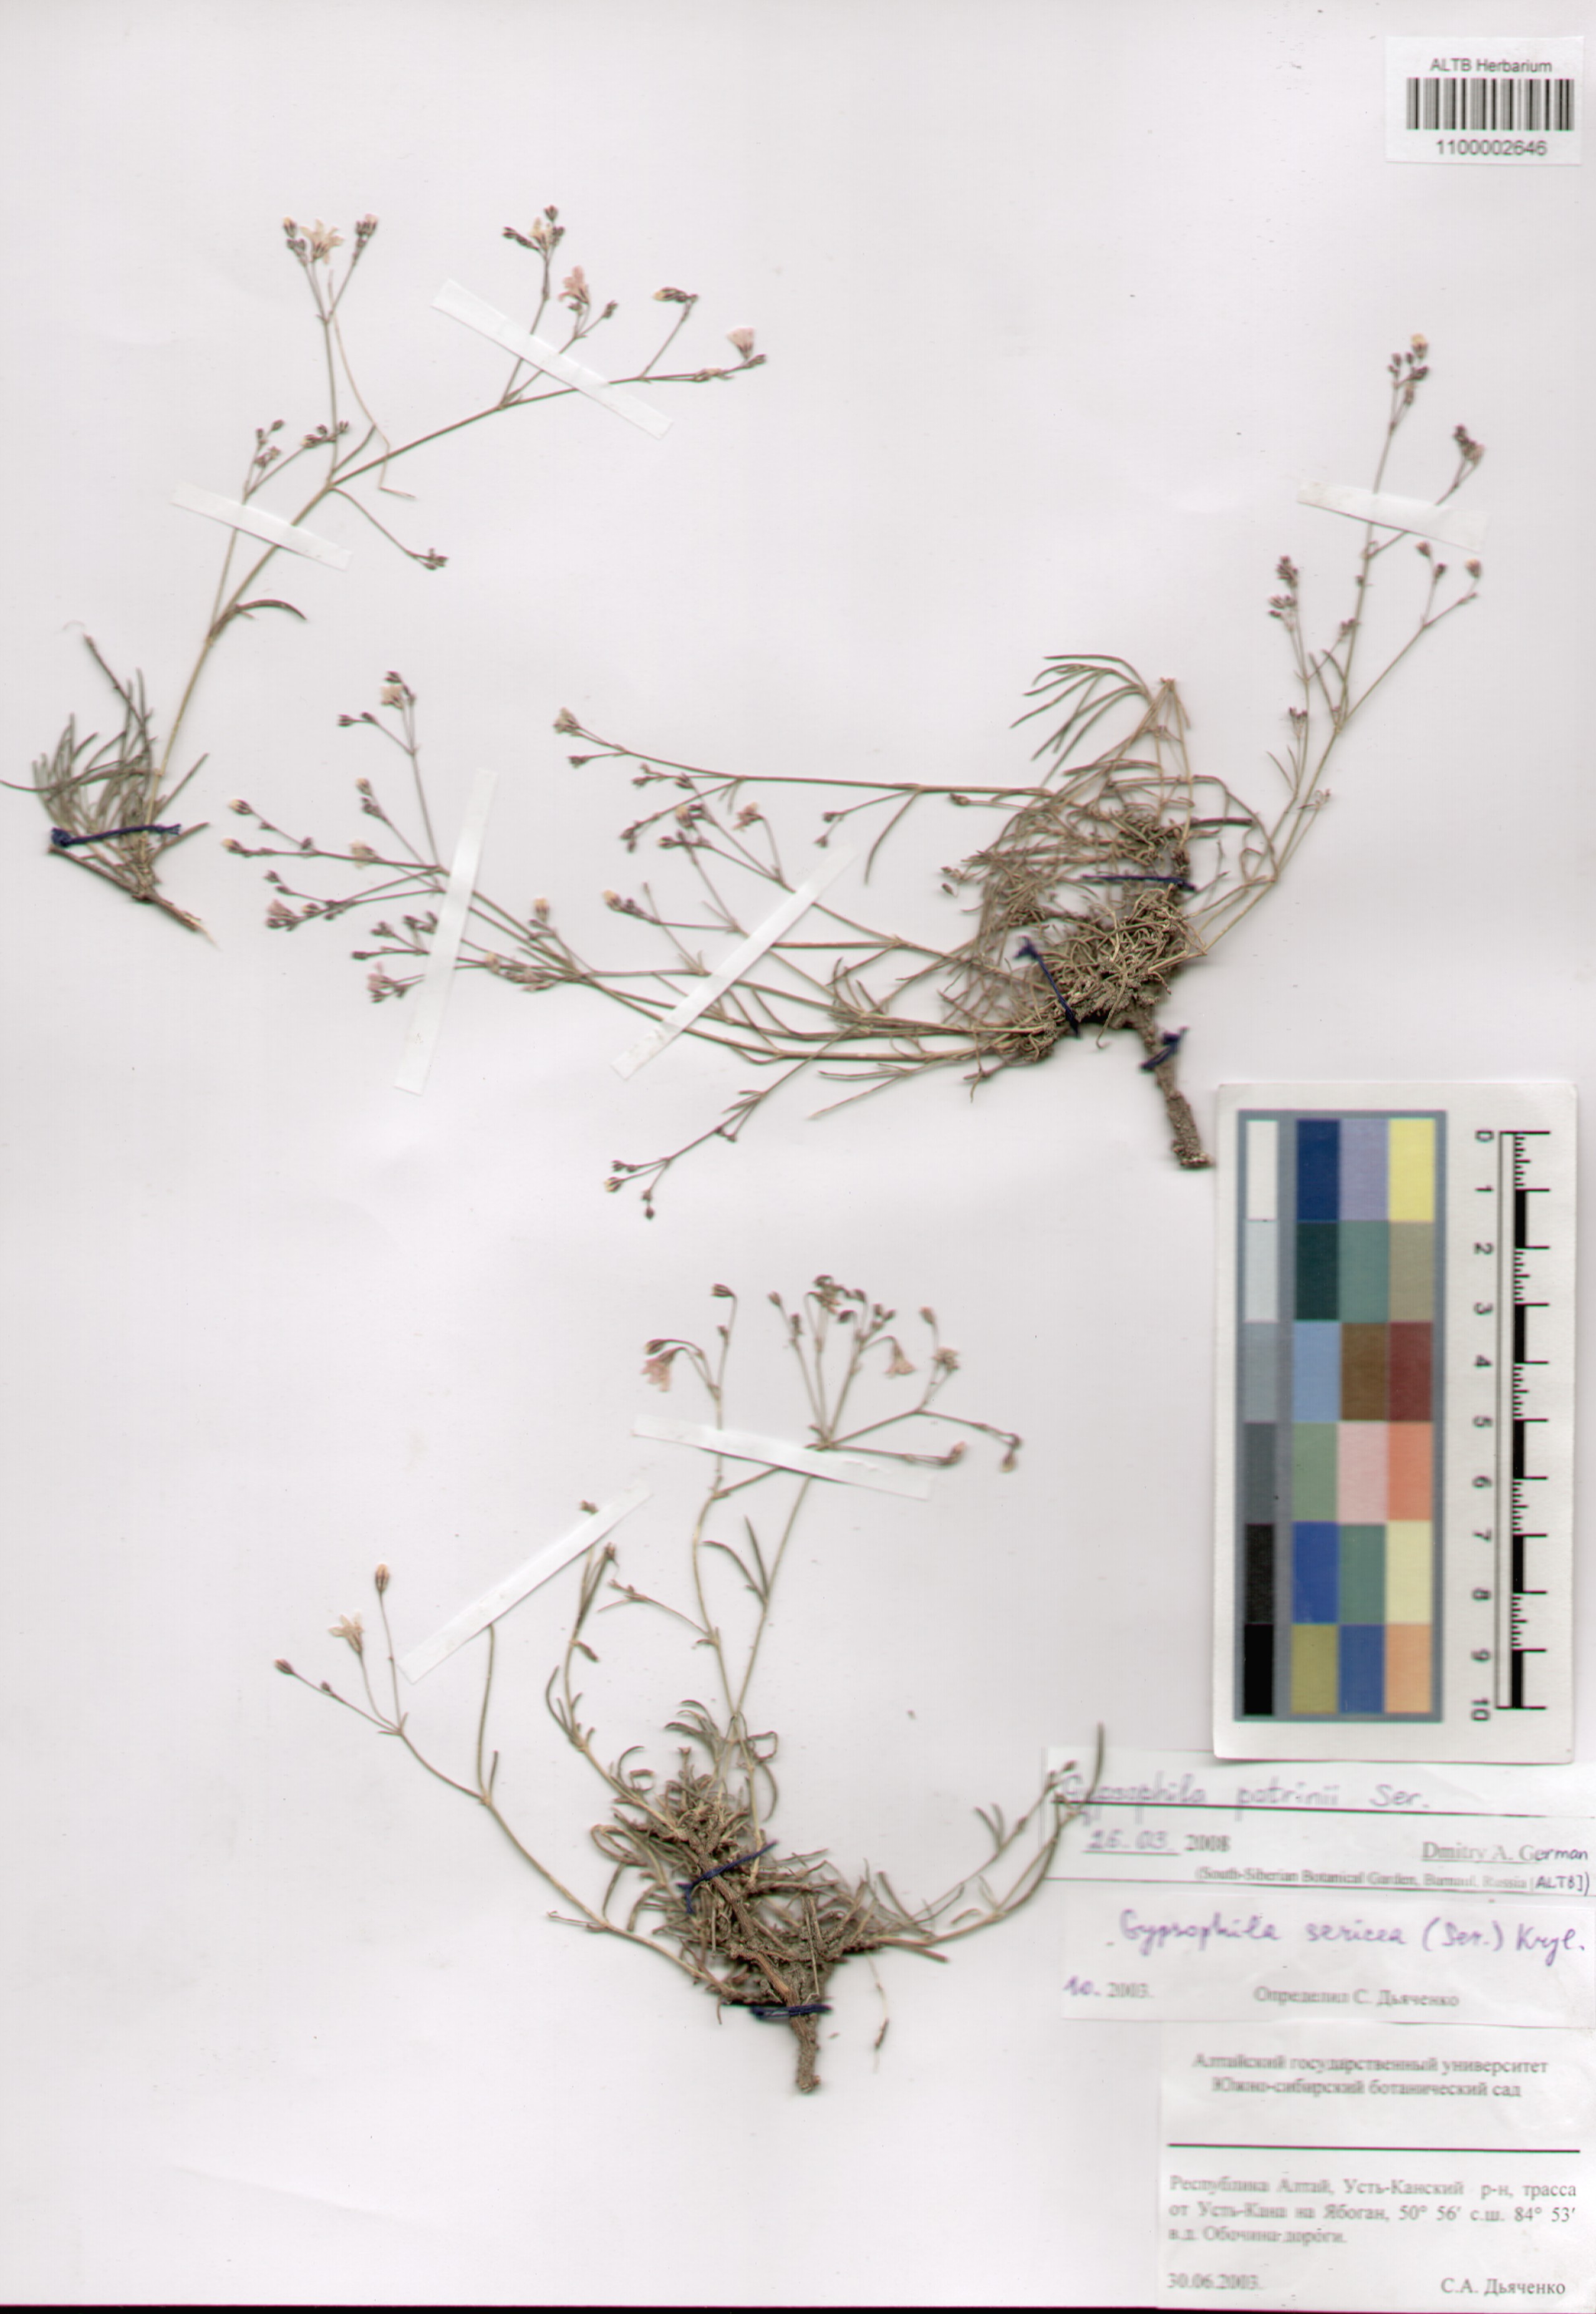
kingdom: Plantae
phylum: Tracheophyta
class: Magnoliopsida
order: Caryophyllales
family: Caryophyllaceae
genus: Gypsophila
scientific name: Gypsophila patrinii
